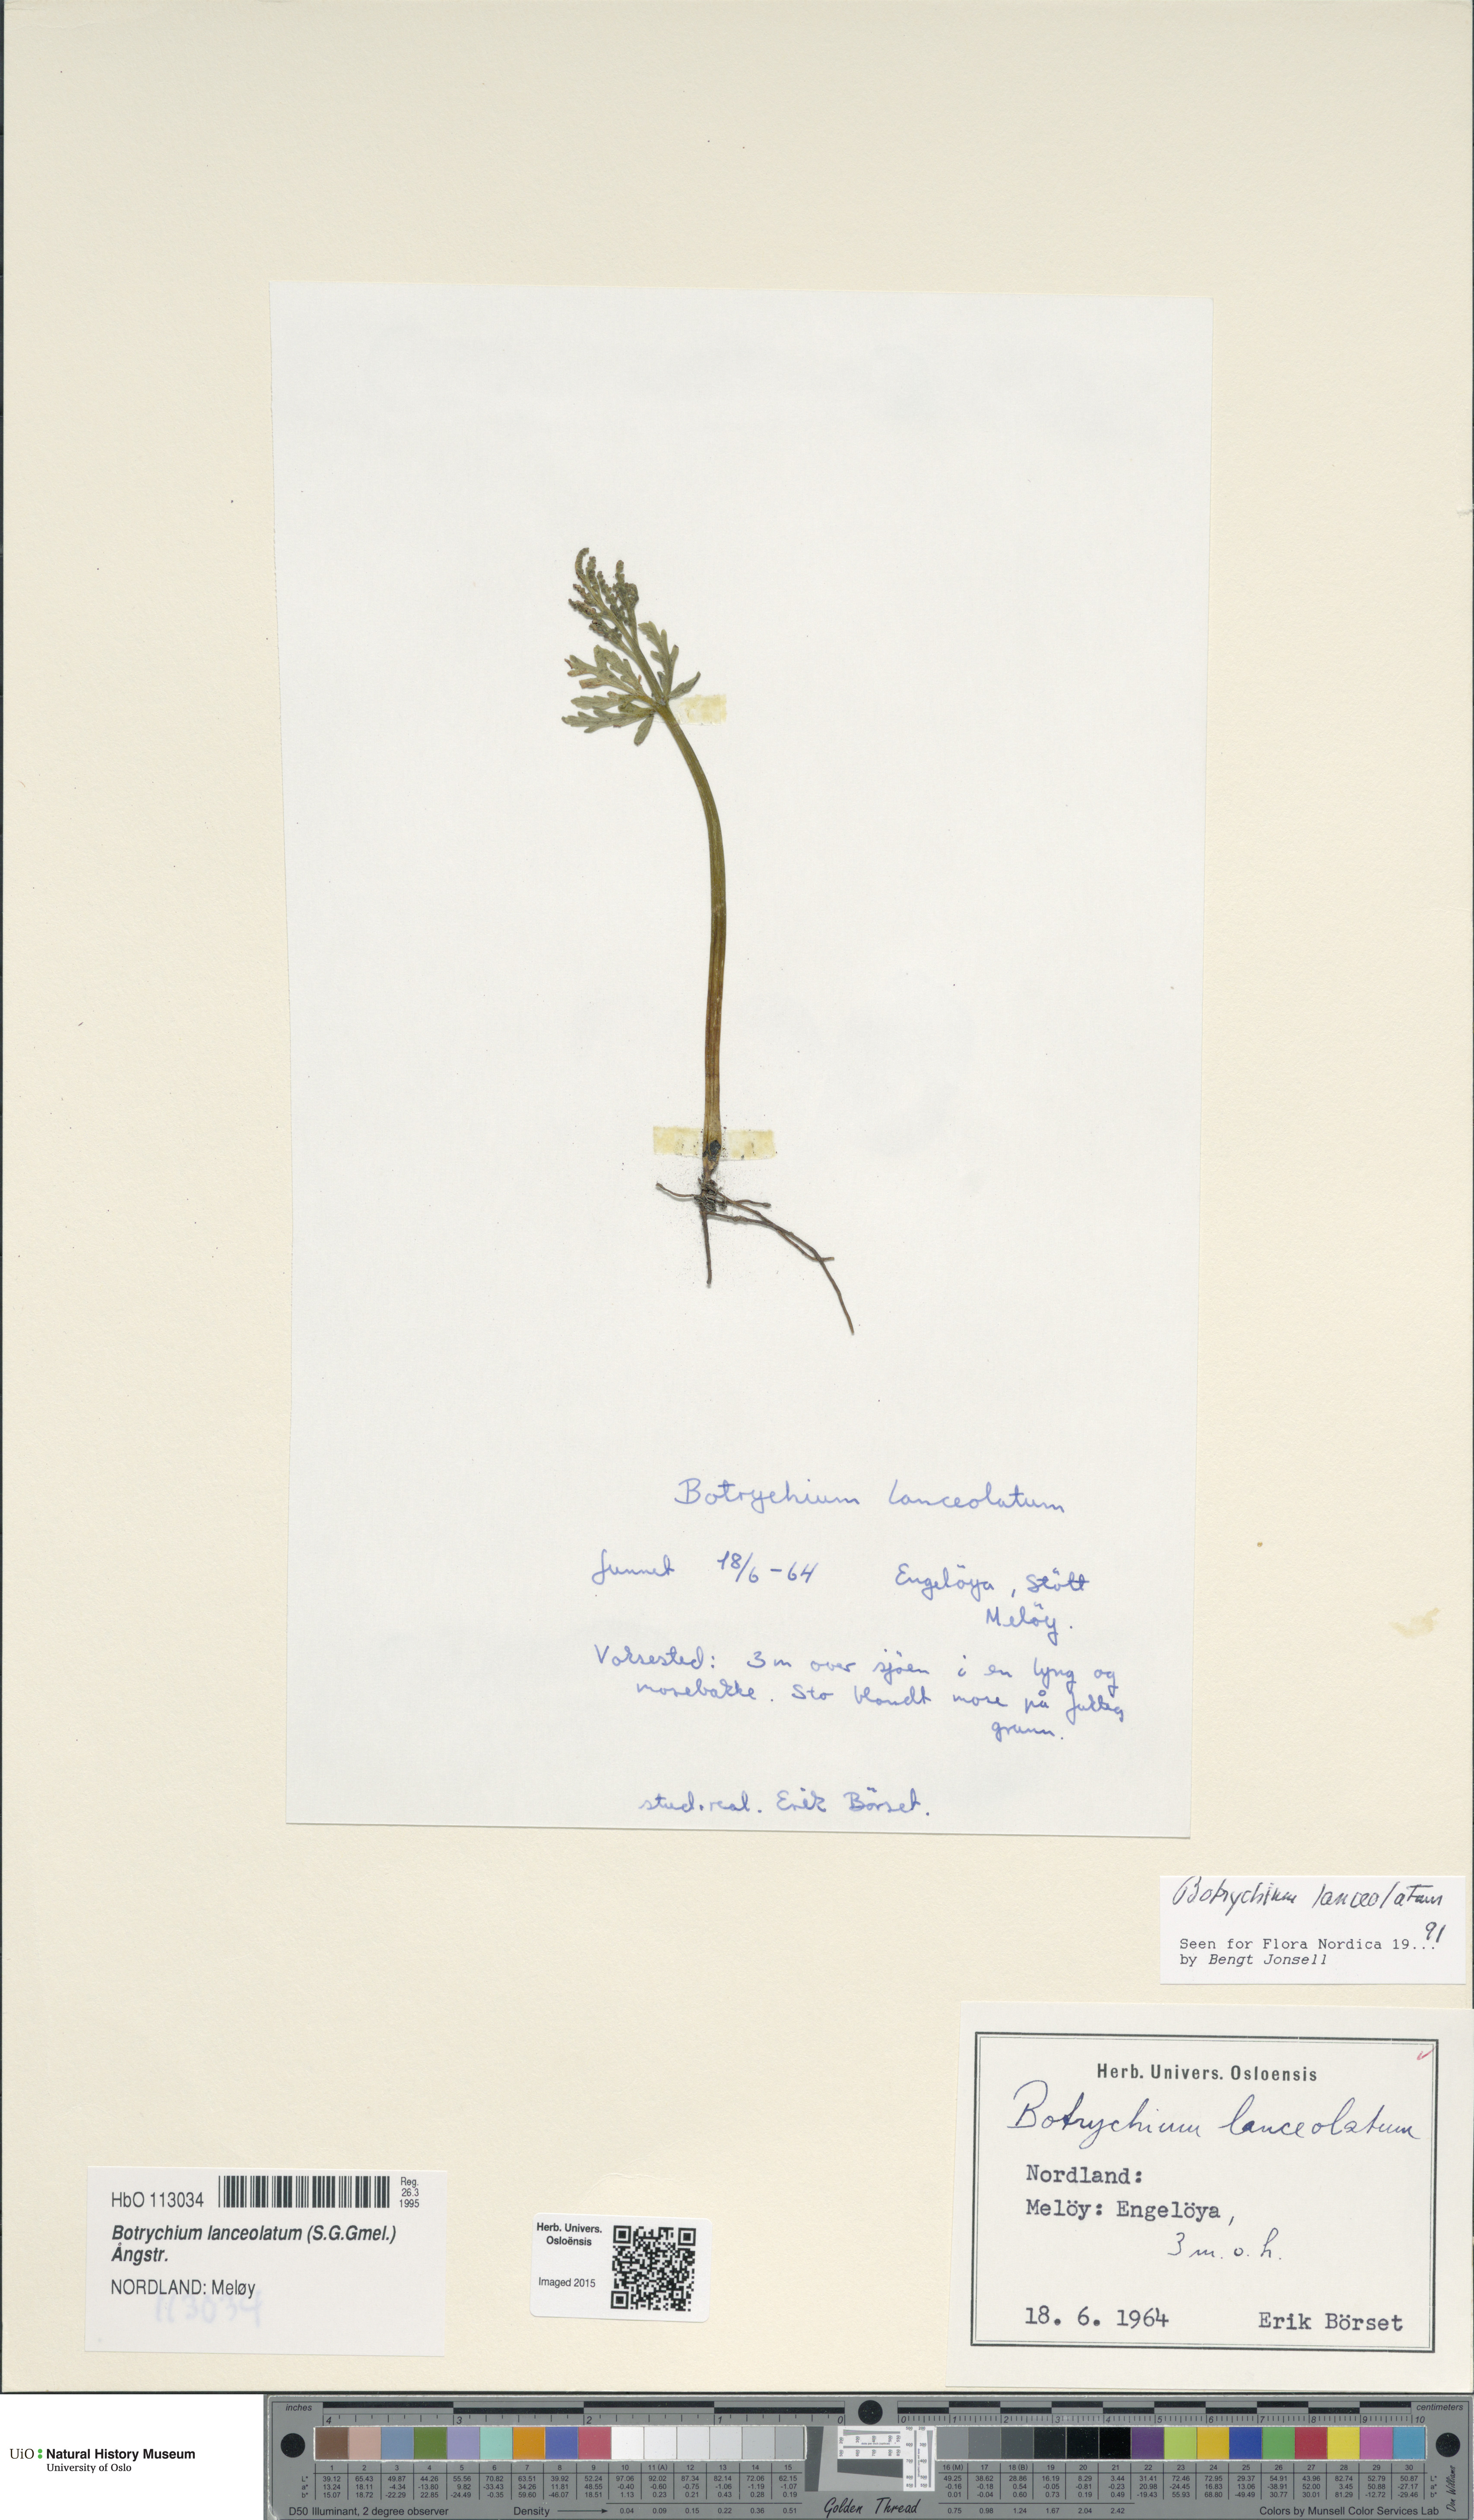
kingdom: Plantae
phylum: Tracheophyta
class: Polypodiopsida
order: Ophioglossales
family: Ophioglossaceae
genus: Botrychium
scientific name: Botrychium lanceolatum
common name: Lance-leaved moonwort
